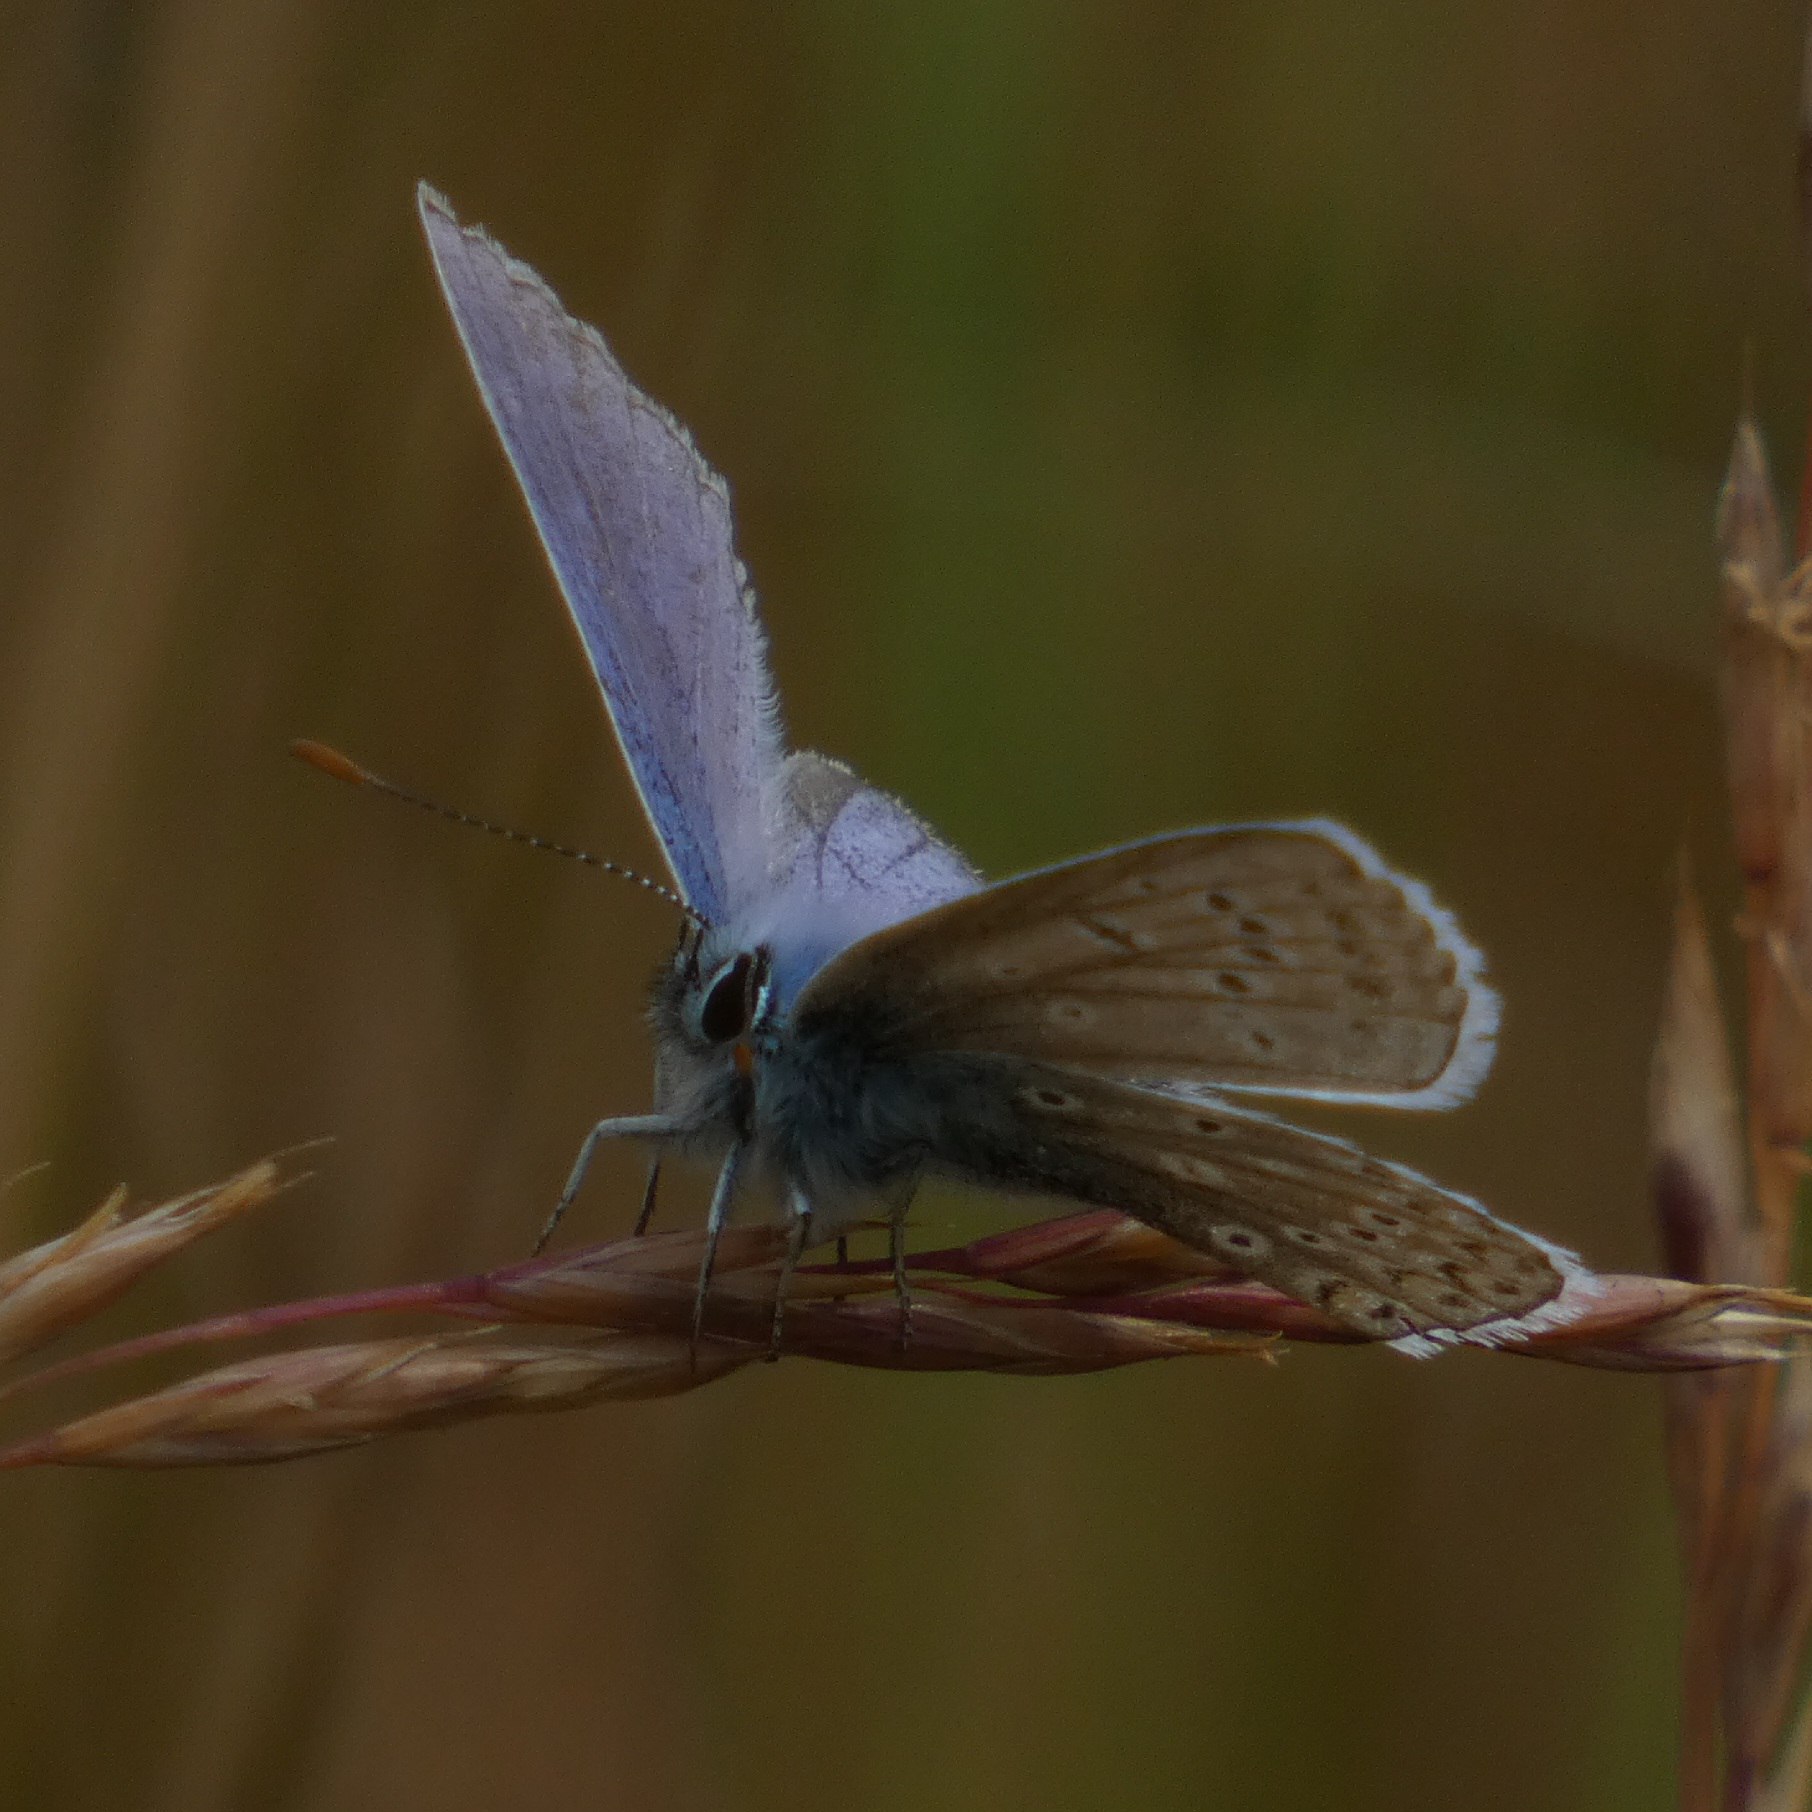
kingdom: Animalia
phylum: Arthropoda
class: Insecta
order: Lepidoptera
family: Lycaenidae
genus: Polyommatus
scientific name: Polyommatus icarus
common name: Almindelig blåfugl
